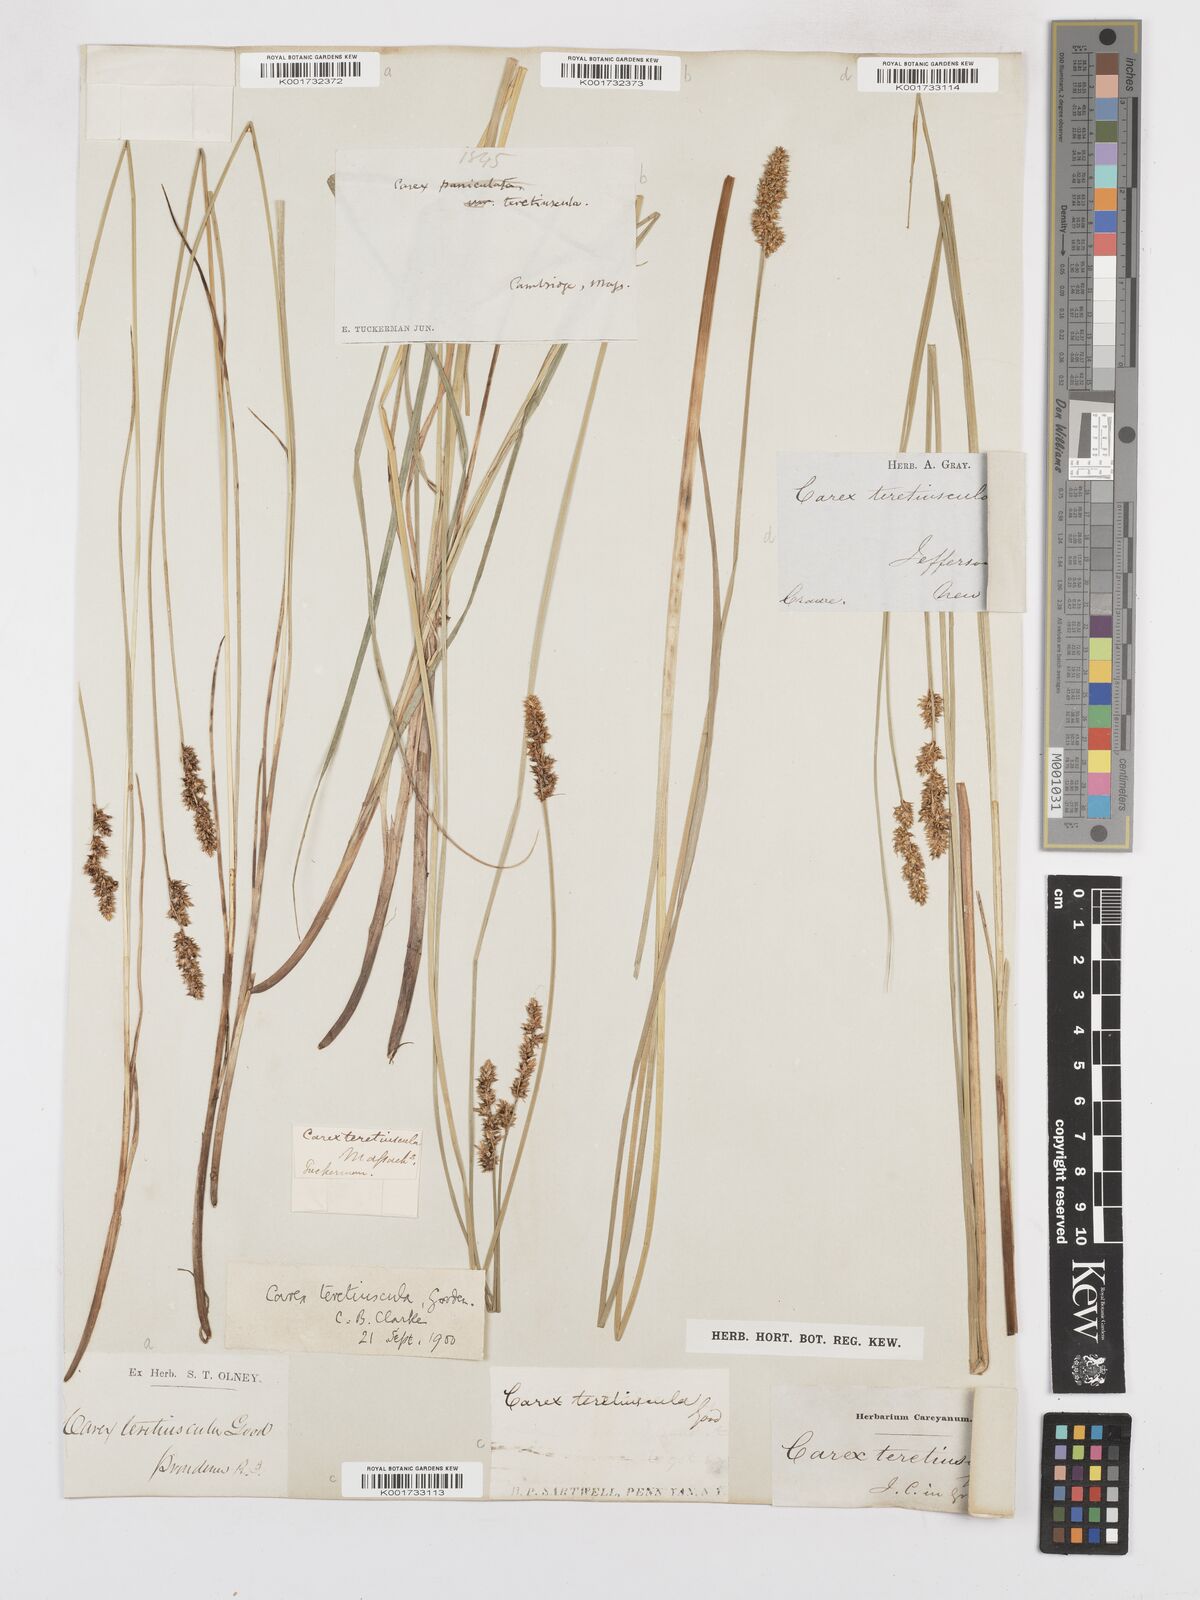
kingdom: Plantae
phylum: Tracheophyta
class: Liliopsida
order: Poales
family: Cyperaceae
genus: Carex
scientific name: Carex prairea
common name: Prairie sedge
